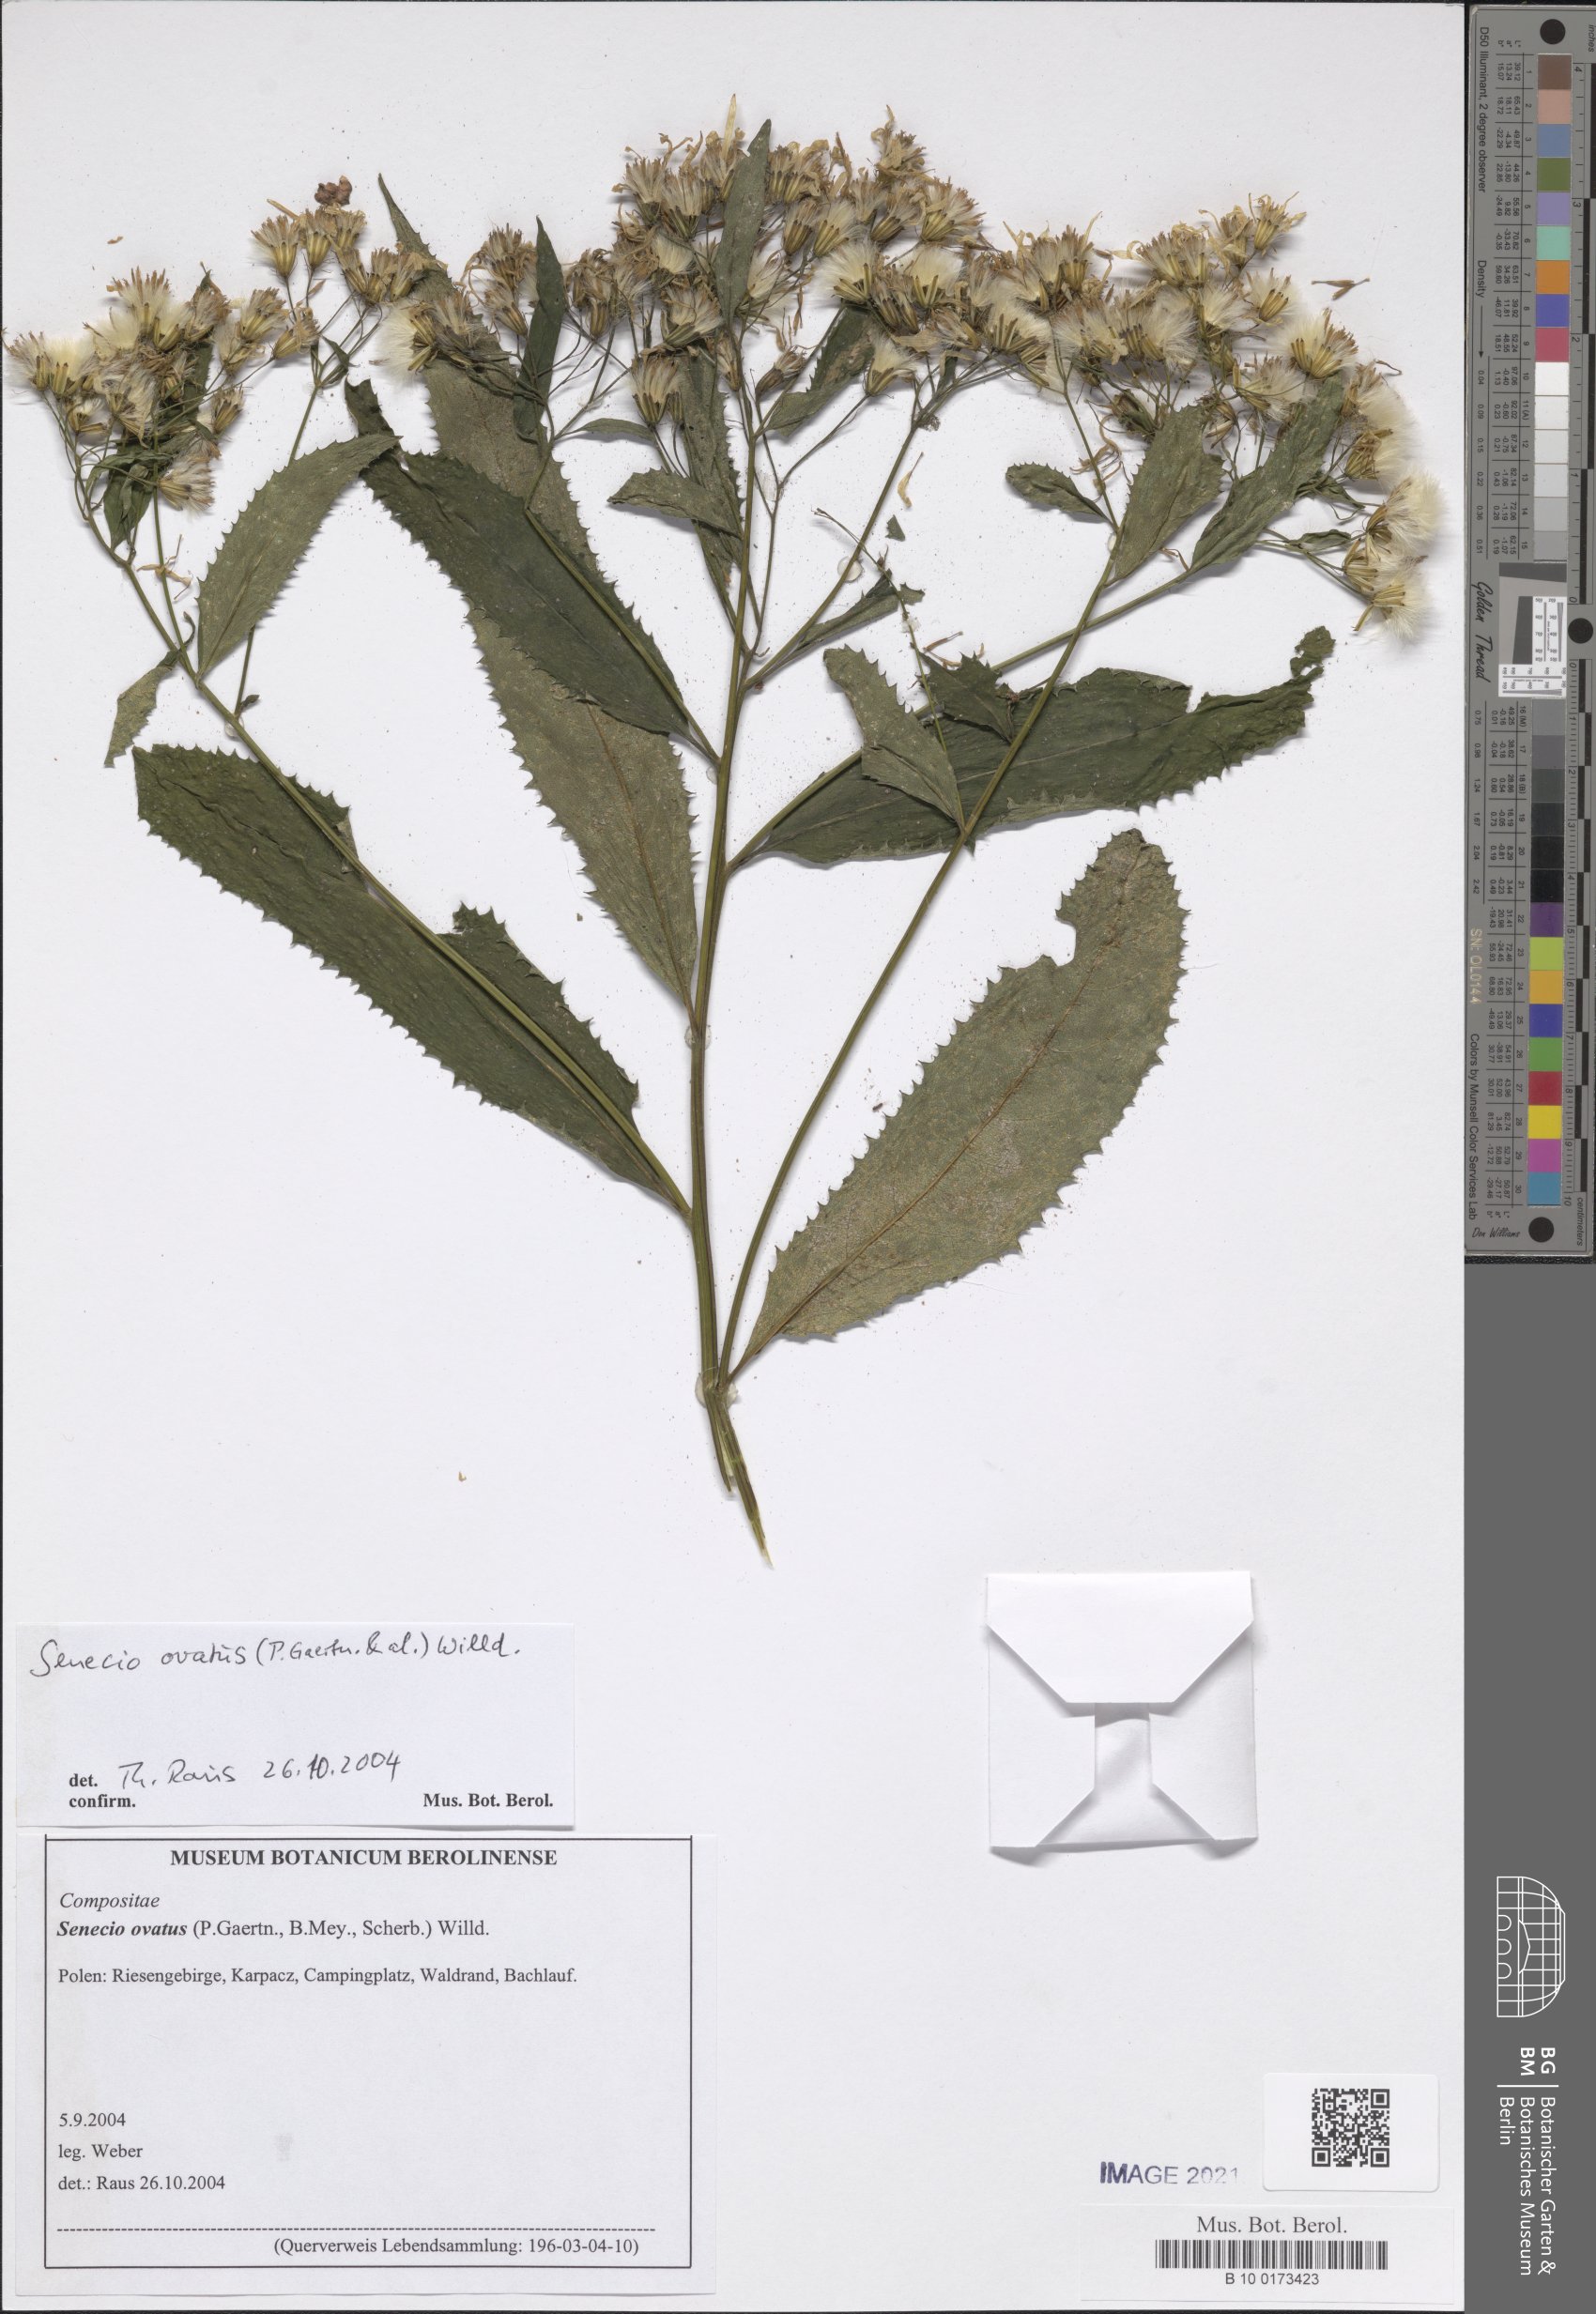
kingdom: Plantae
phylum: Tracheophyta
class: Magnoliopsida
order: Asterales
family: Asteraceae
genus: Senecio
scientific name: Senecio ovatus
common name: Wood ragwort
